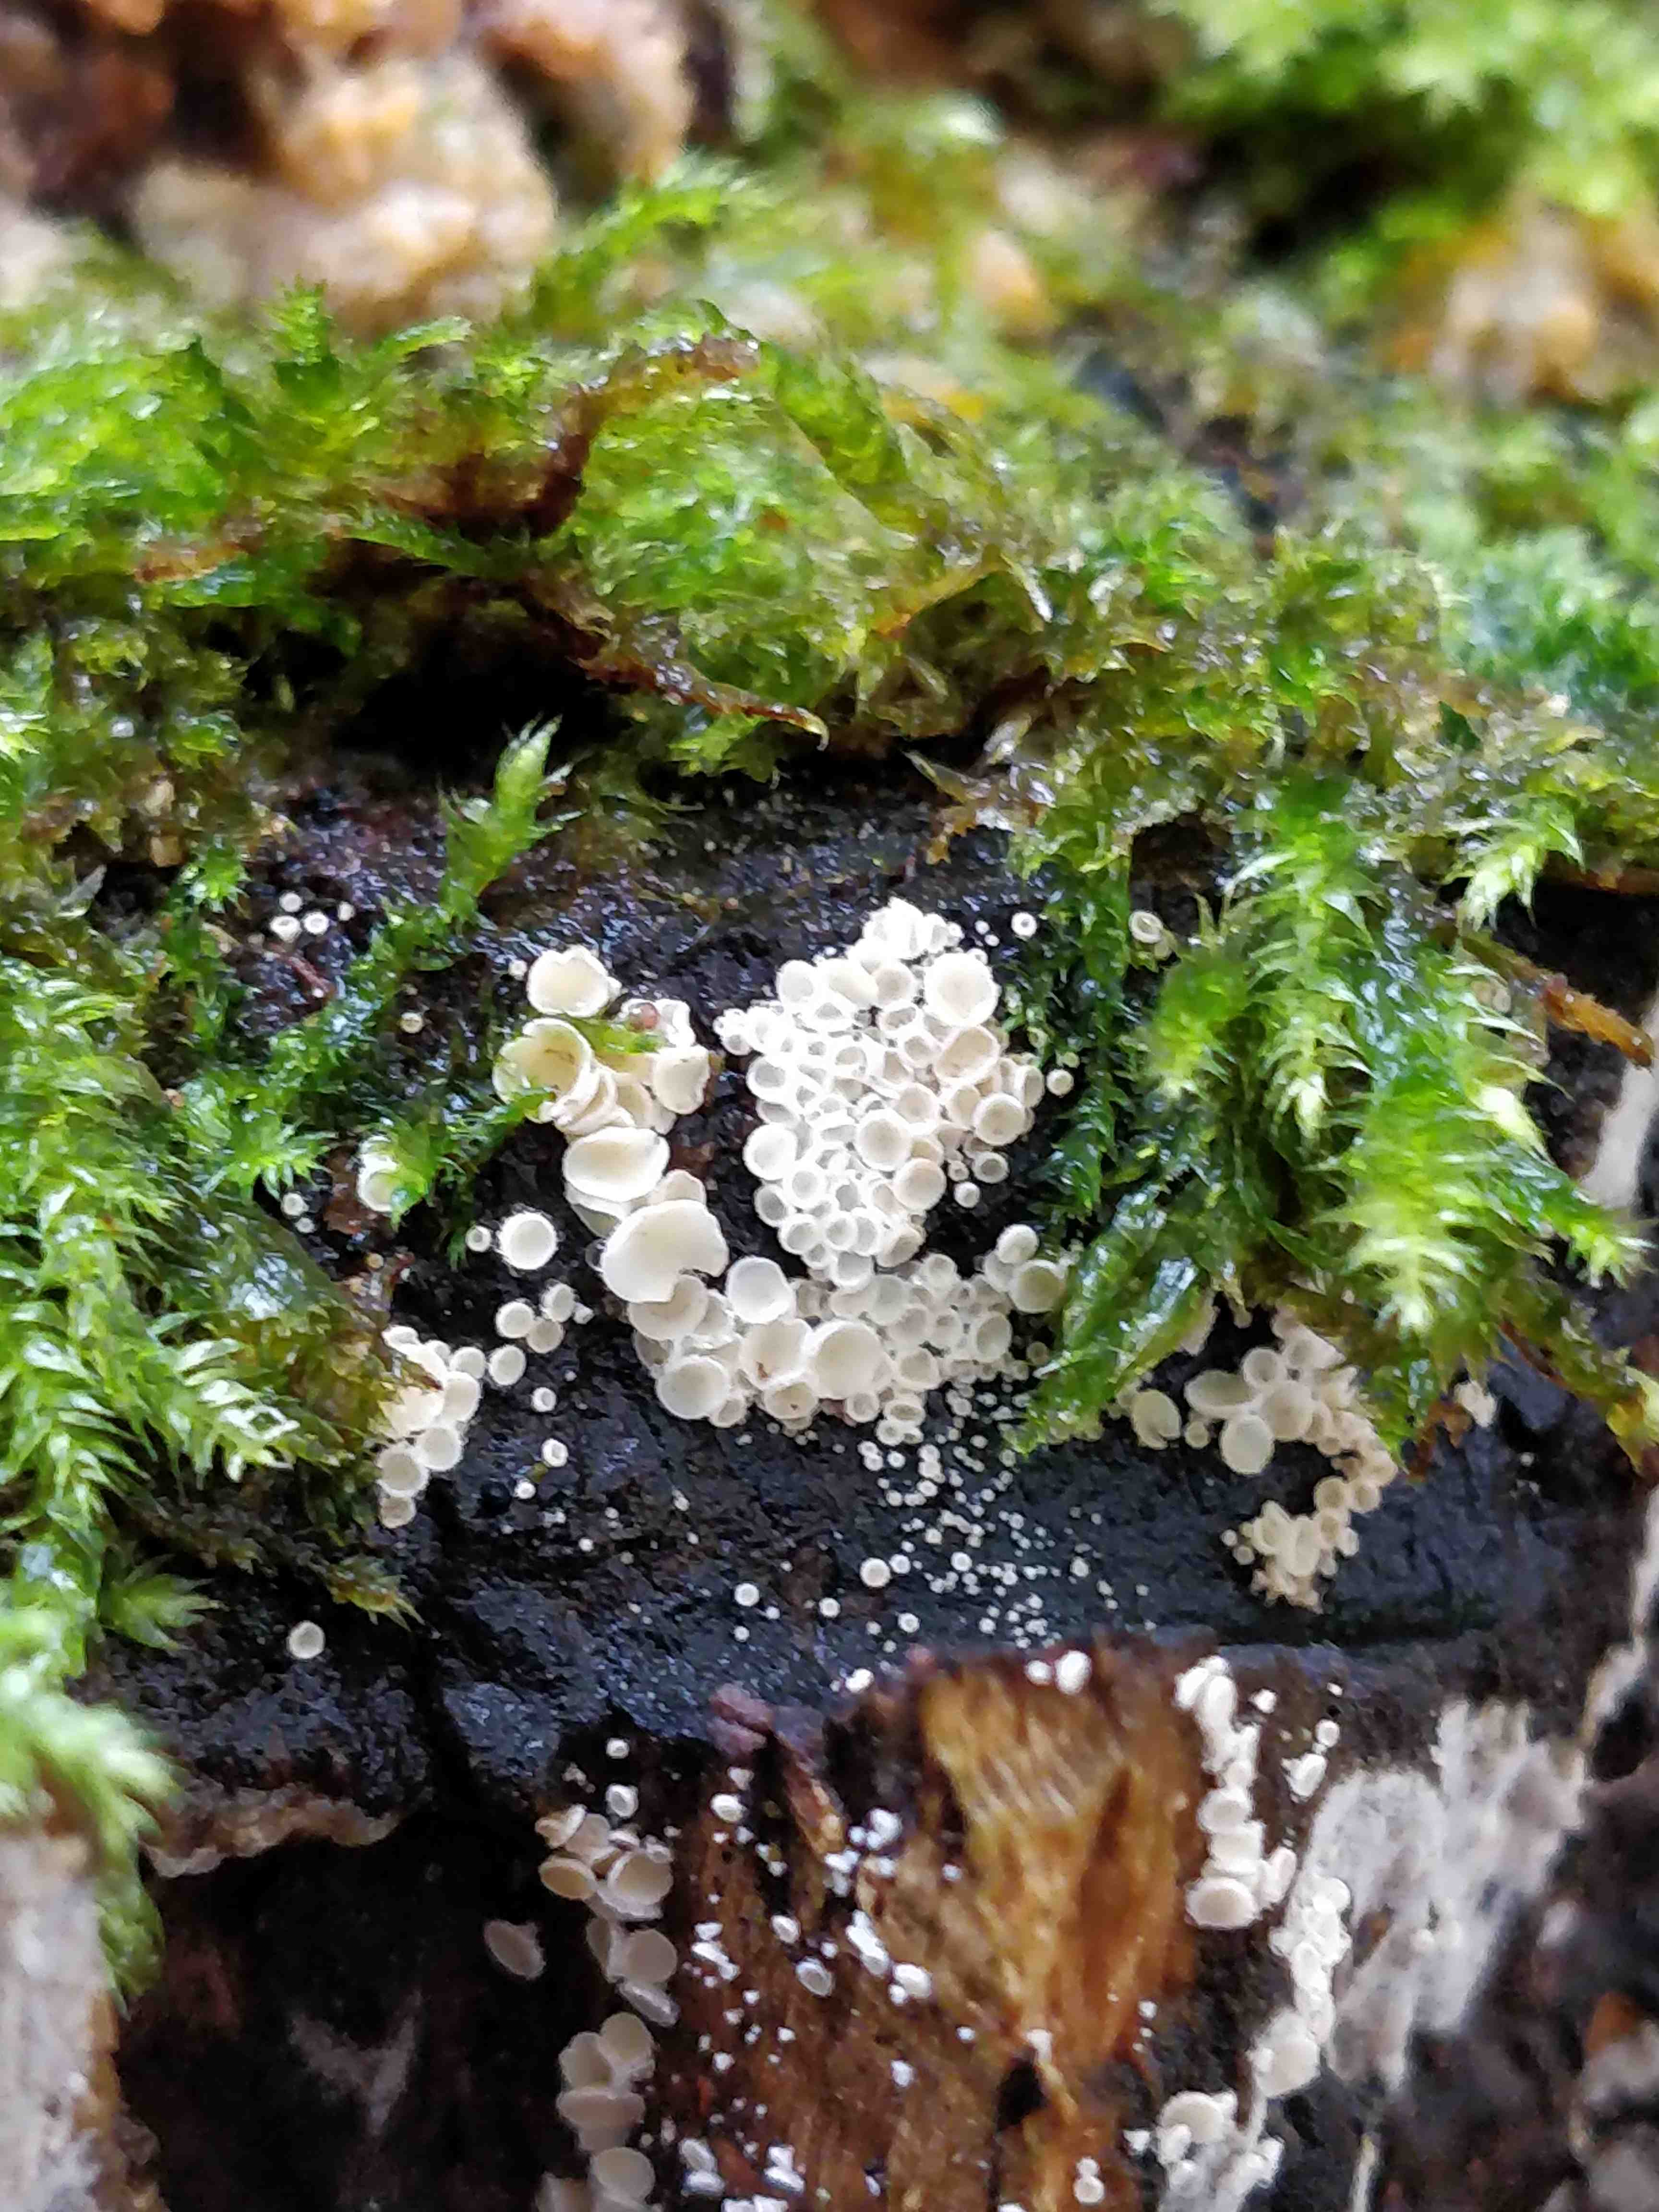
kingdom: Fungi
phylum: Ascomycota
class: Leotiomycetes
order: Helotiales
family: Lachnaceae
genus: Lachnum
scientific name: Lachnum
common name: frynseskive
